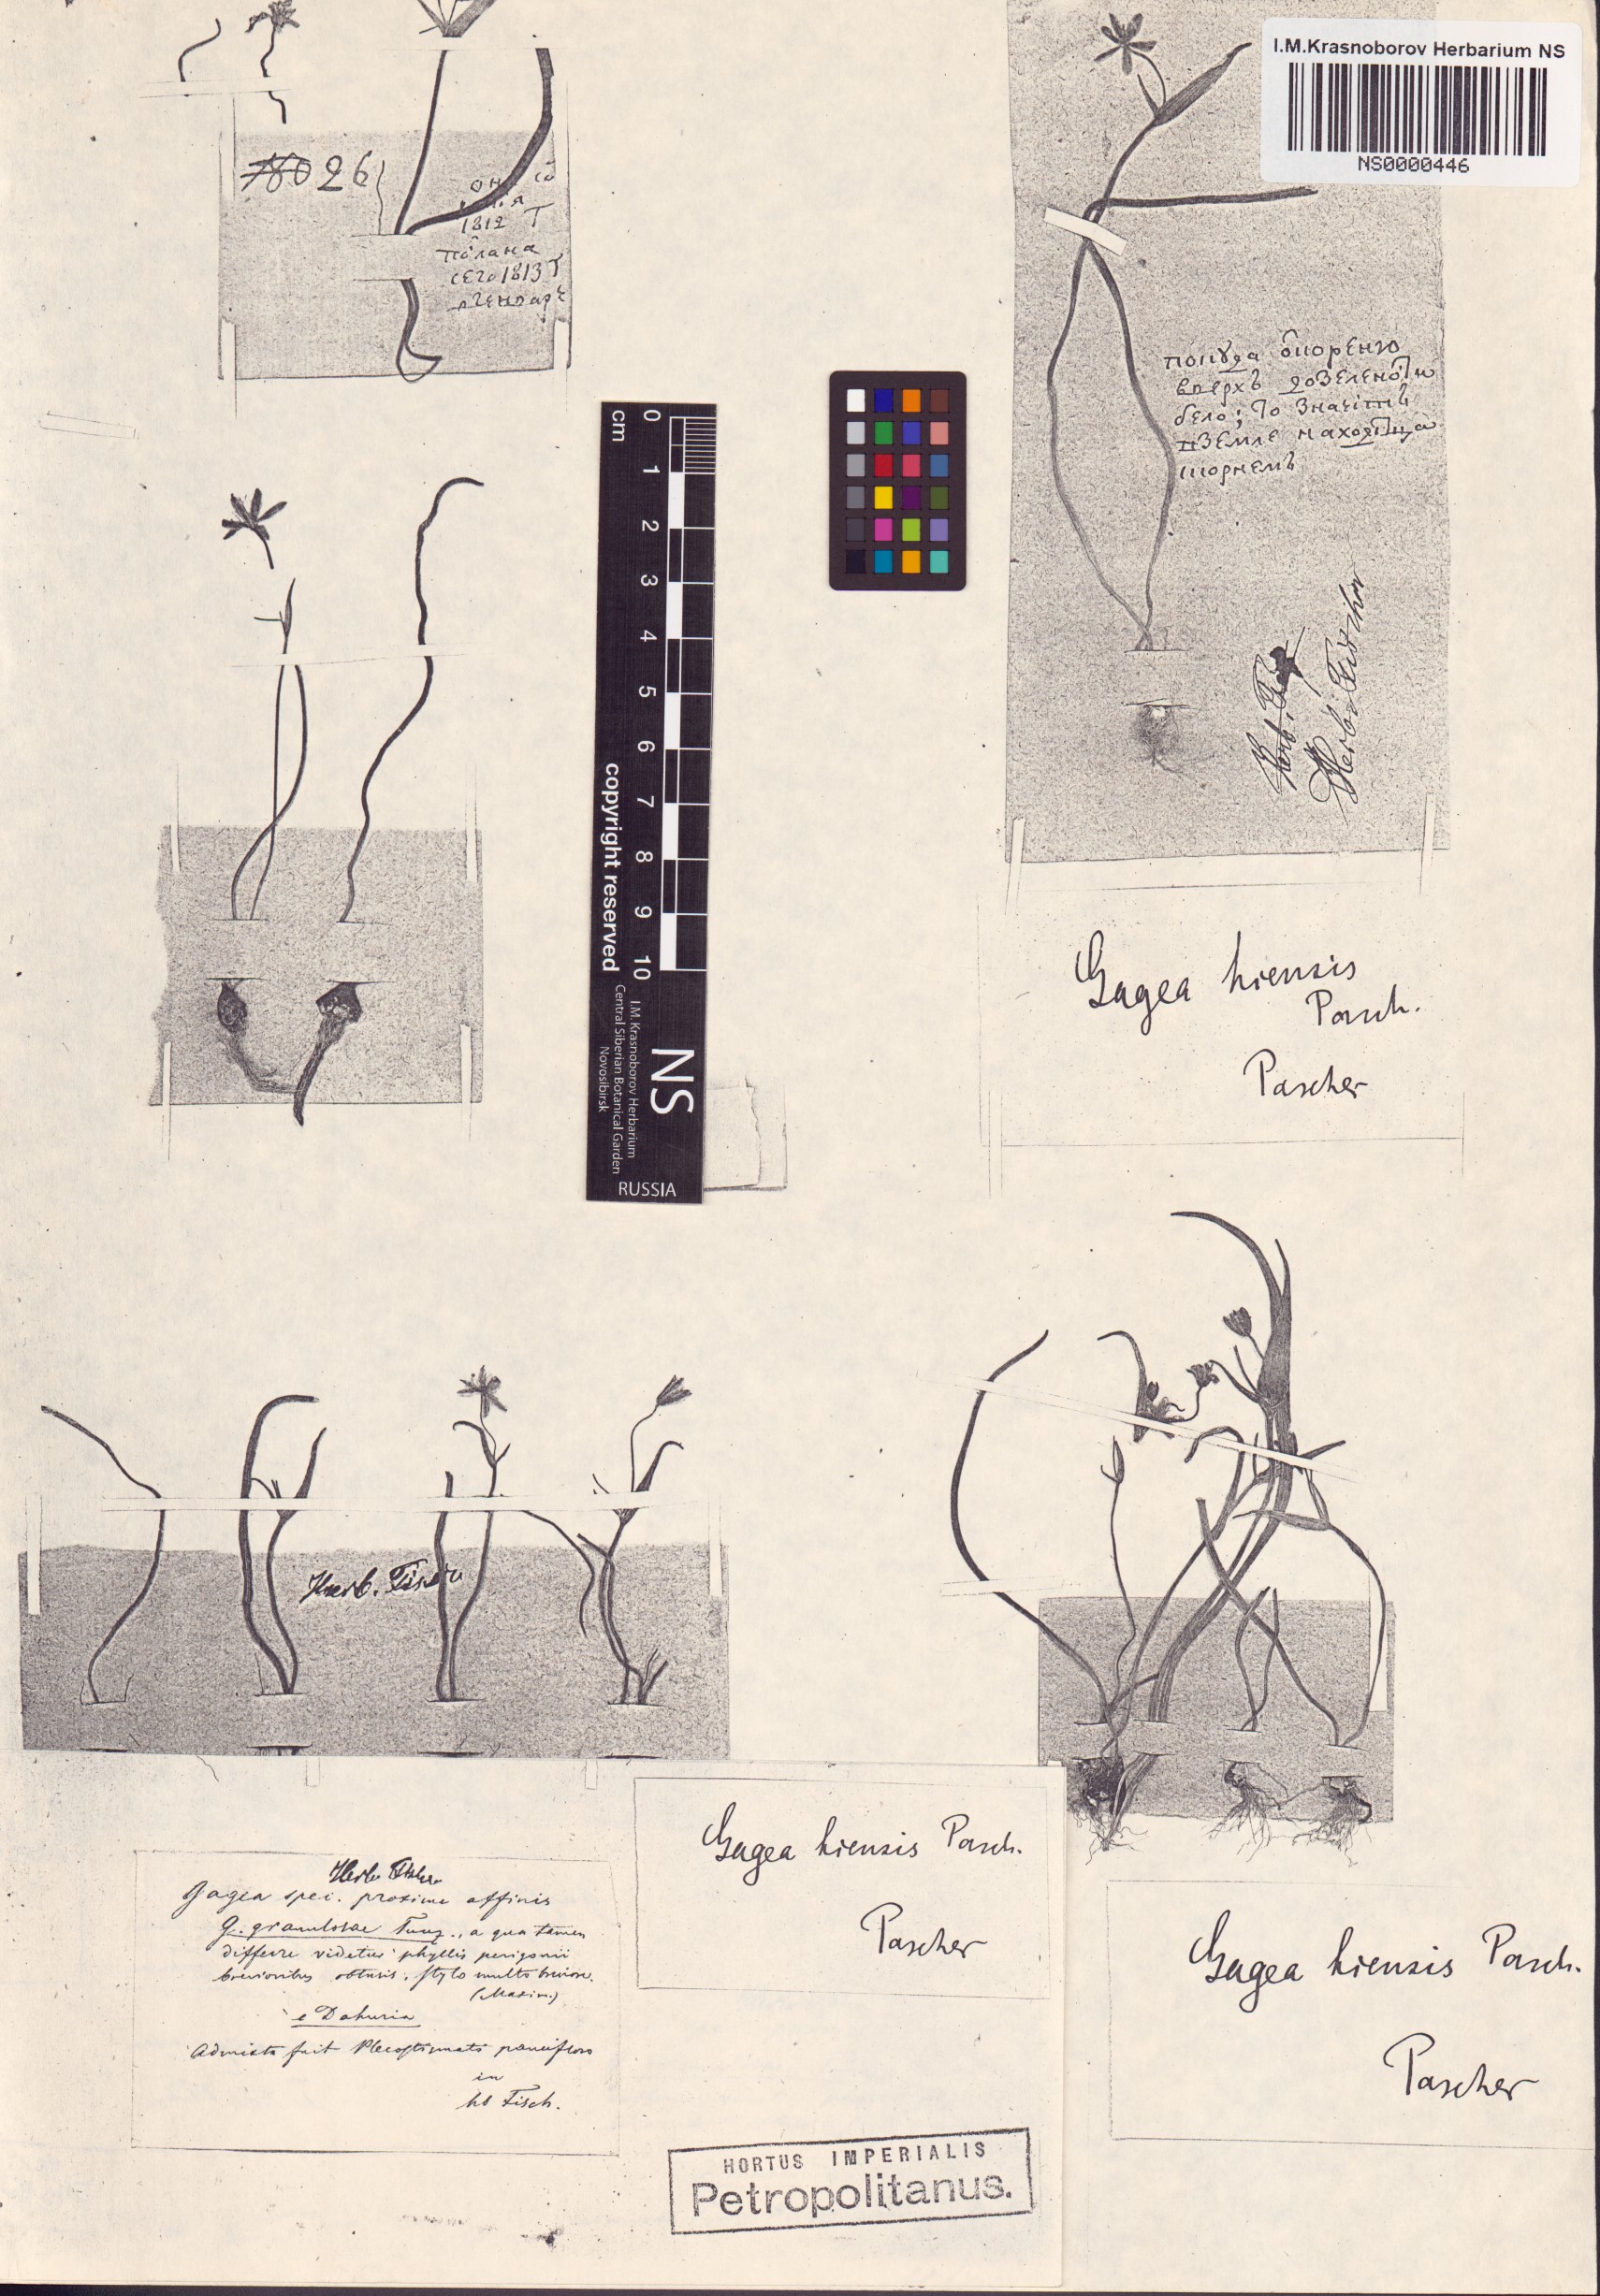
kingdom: Plantae
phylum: Tracheophyta
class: Liliopsida
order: Liliales
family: Liliaceae
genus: Gagea
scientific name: Gagea hiensis
